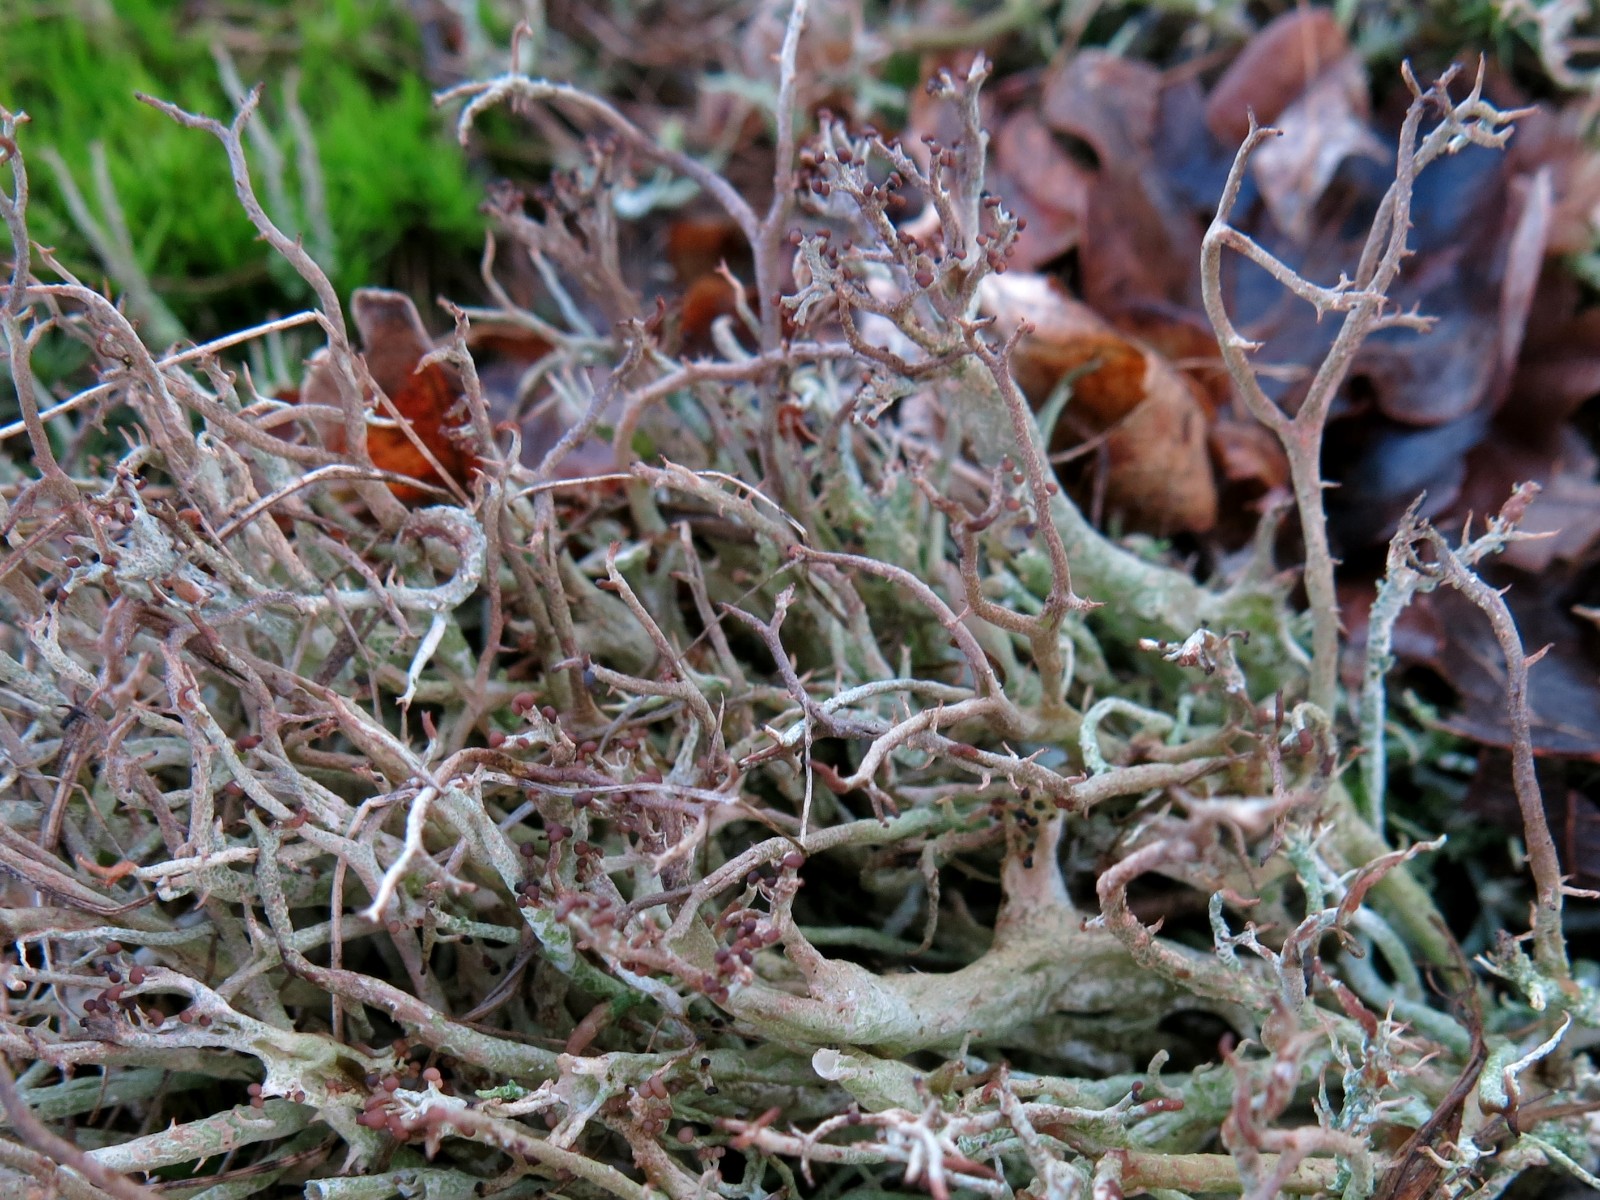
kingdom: Fungi
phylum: Ascomycota
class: Lecanoromycetes
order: Lecanorales
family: Cladoniaceae
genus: Cladonia
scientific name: Cladonia furcata
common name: kløftet bægerlav
